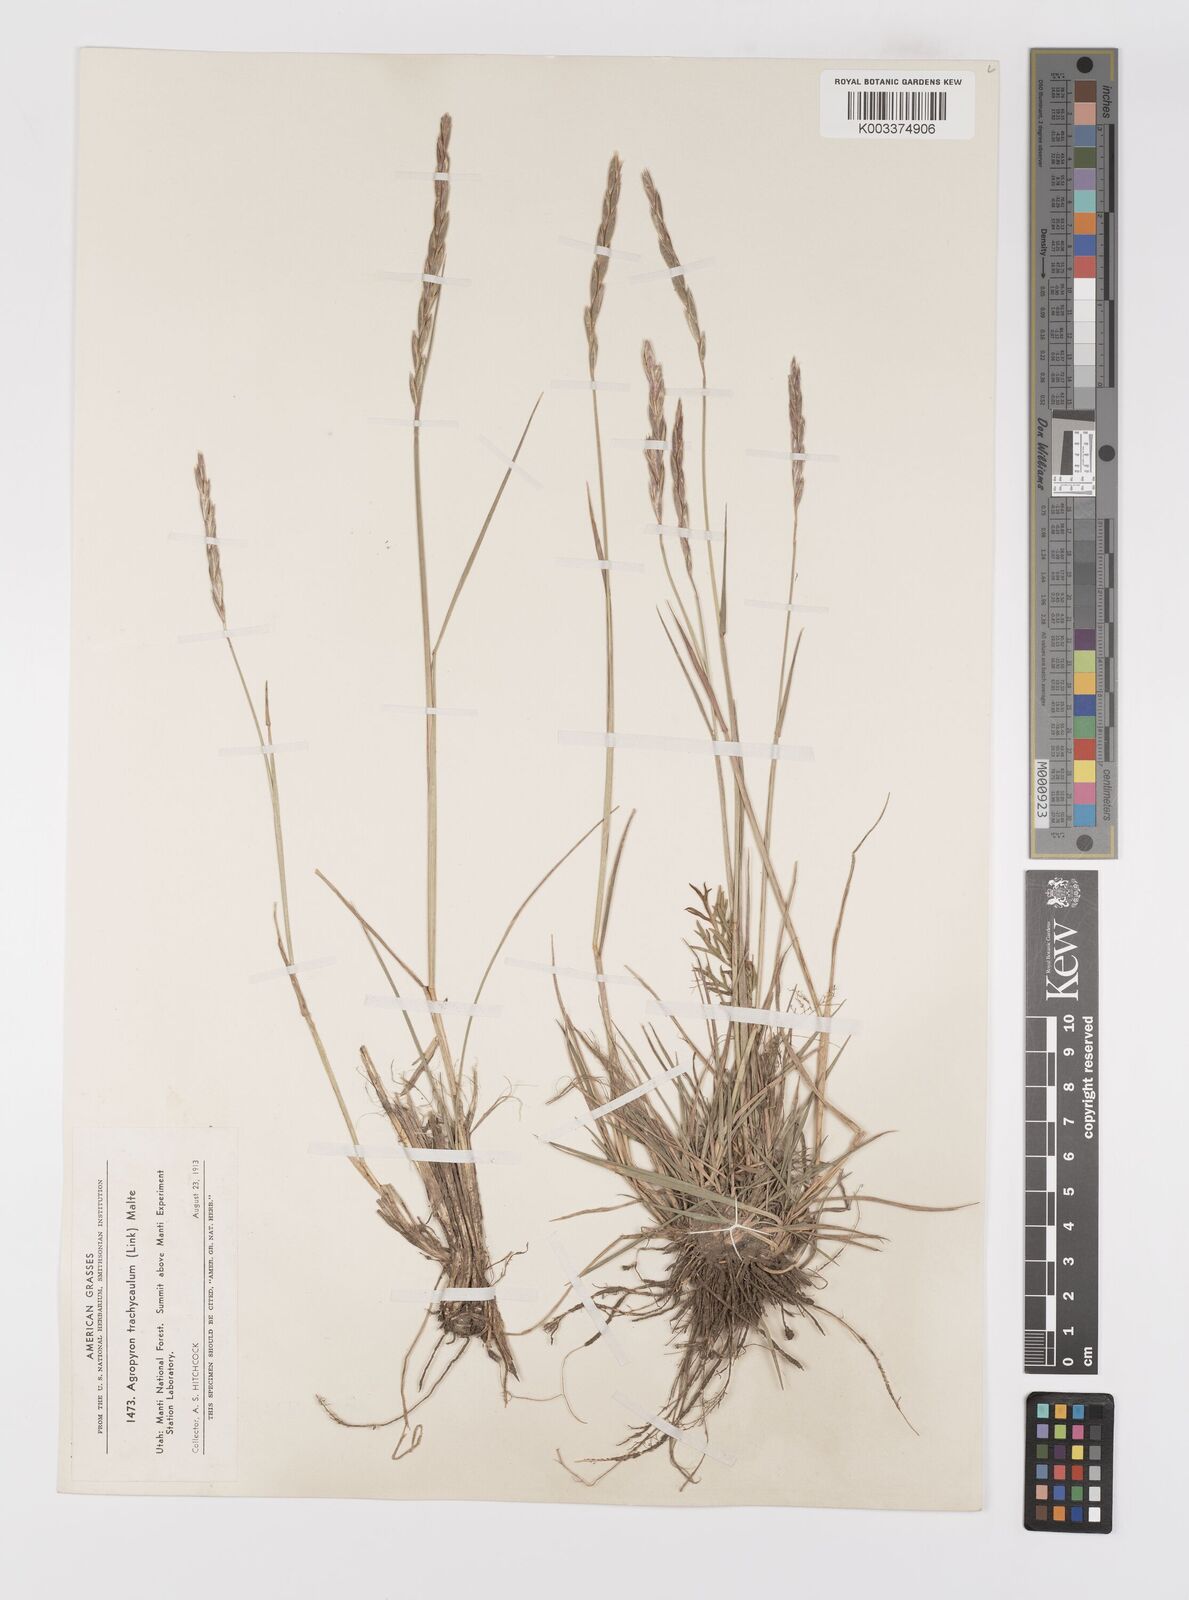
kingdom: Plantae
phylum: Tracheophyta
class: Liliopsida
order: Poales
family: Poaceae
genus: Elymus
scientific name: Elymus violaceus
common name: Arctic wheatgrass
